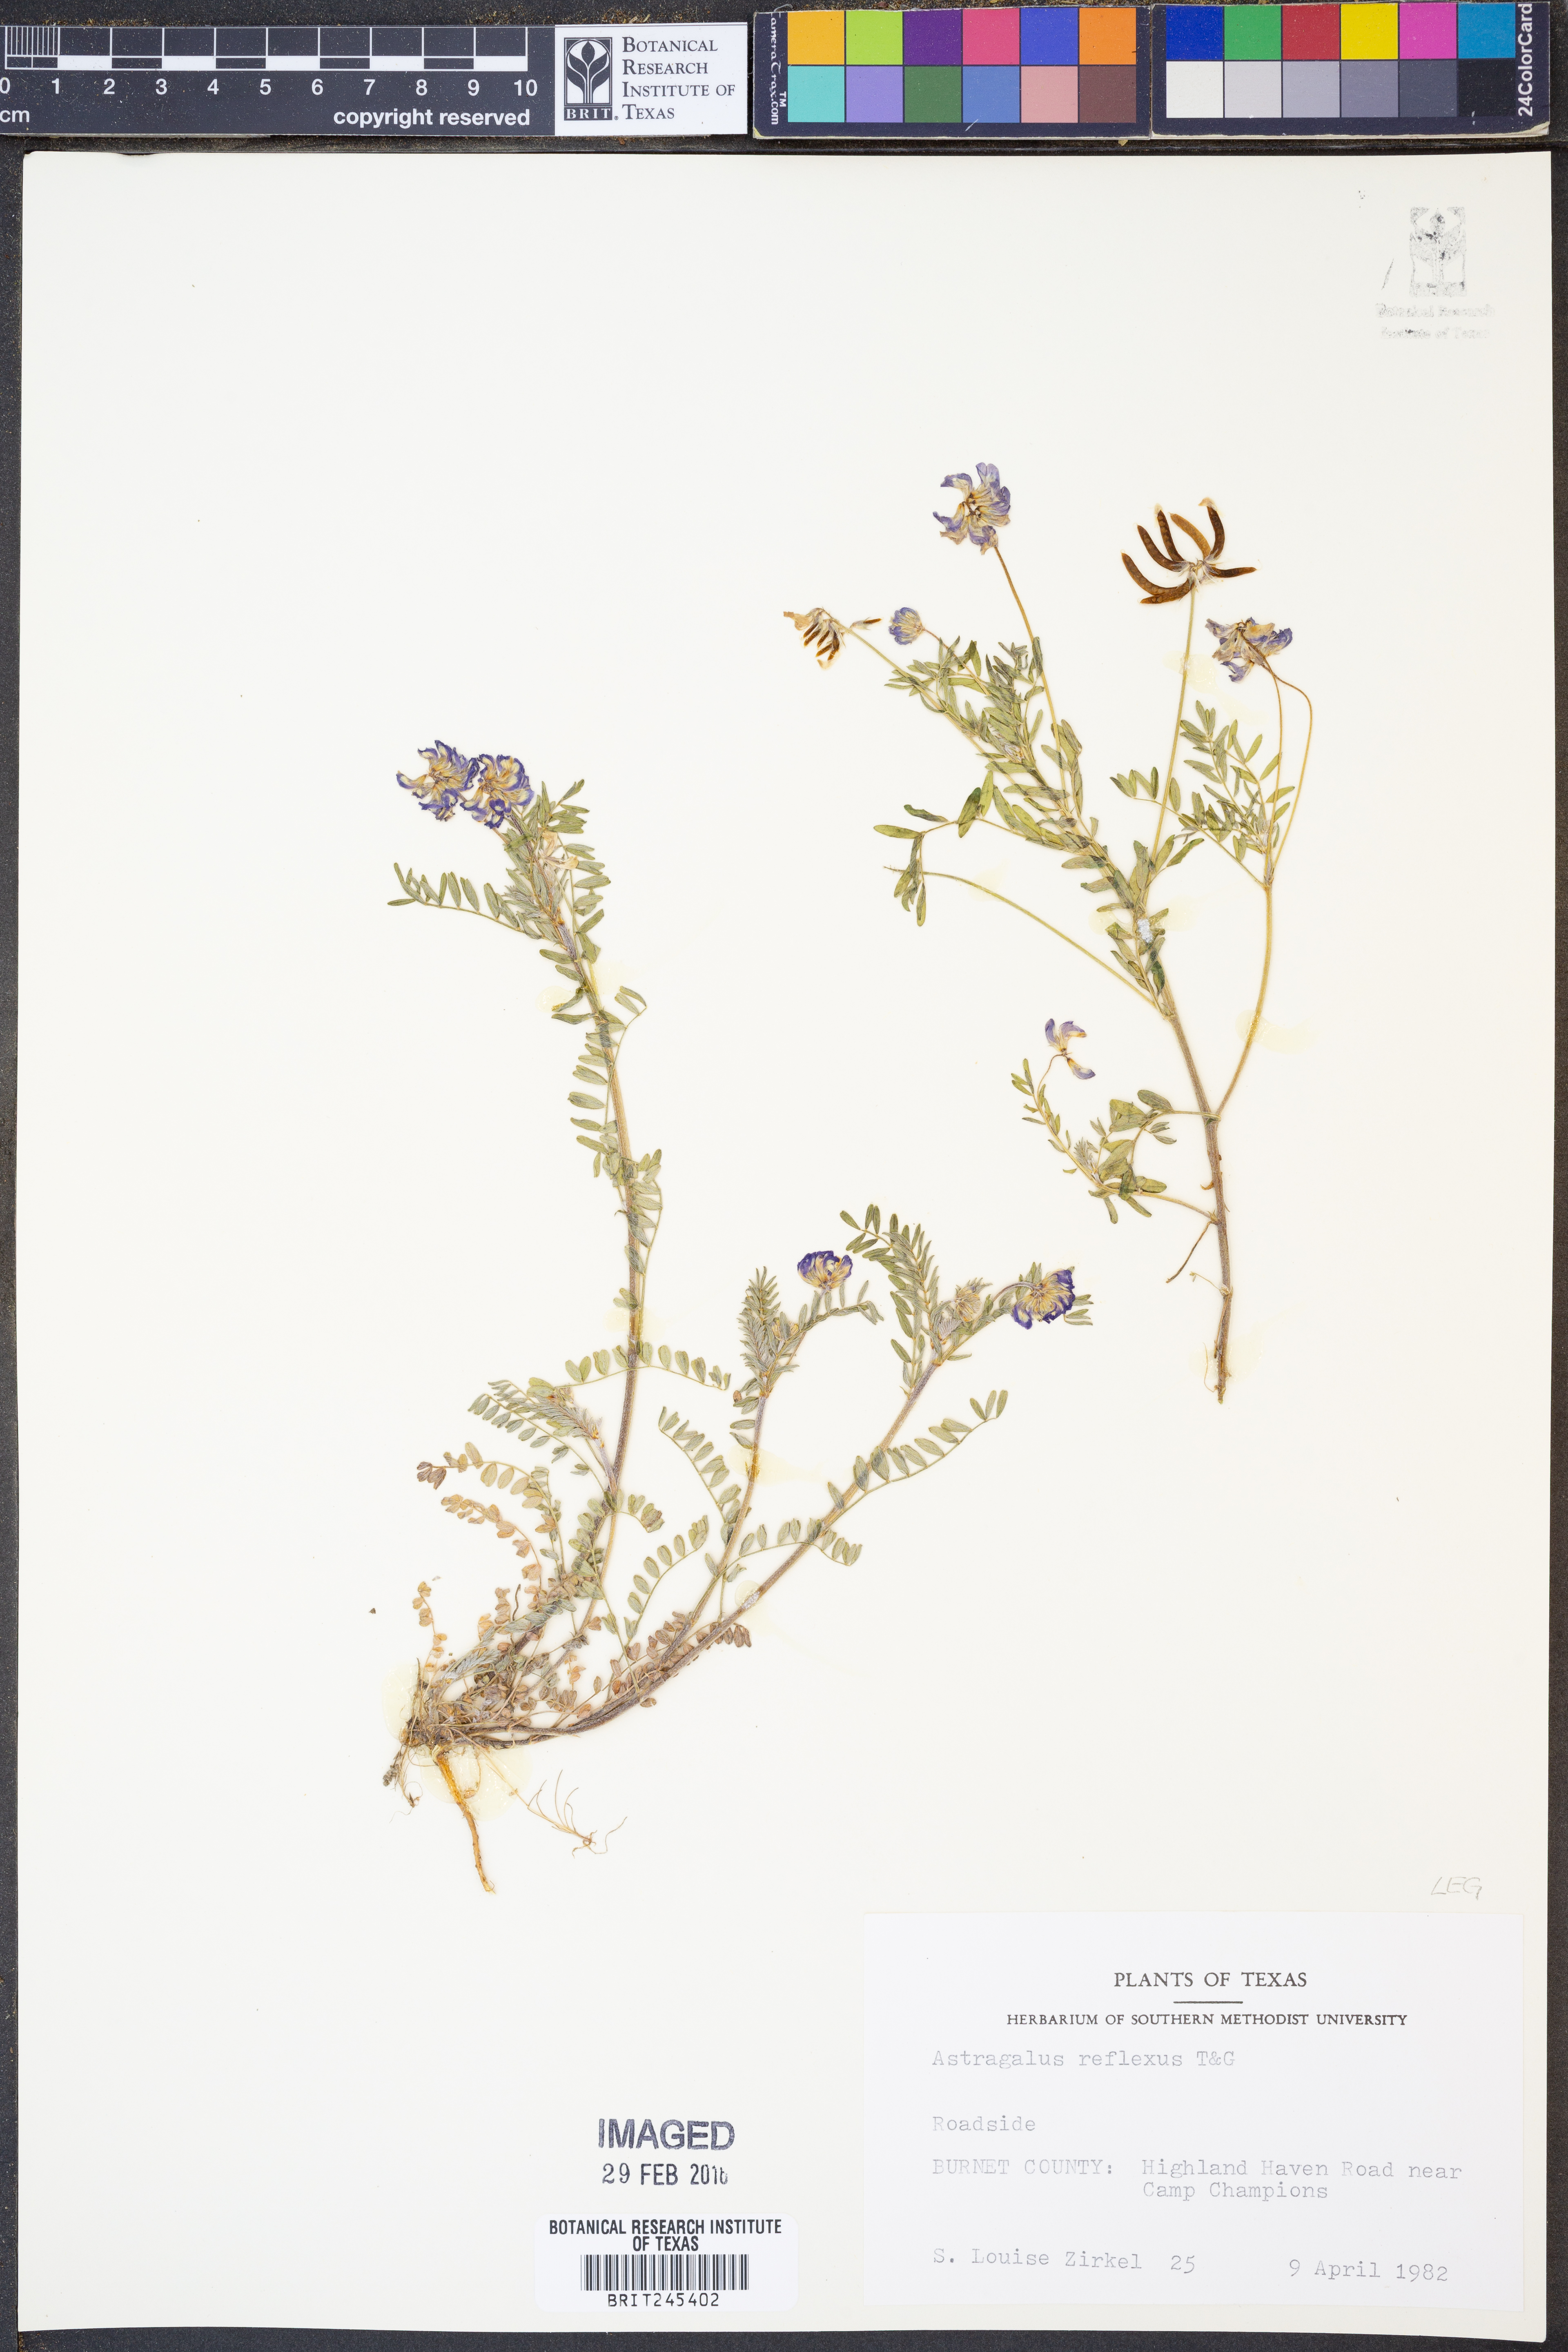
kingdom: Plantae
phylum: Tracheophyta
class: Magnoliopsida
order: Fabales
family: Fabaceae
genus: Astragalus
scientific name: Astragalus reflexus
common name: Texas milk-vetch
